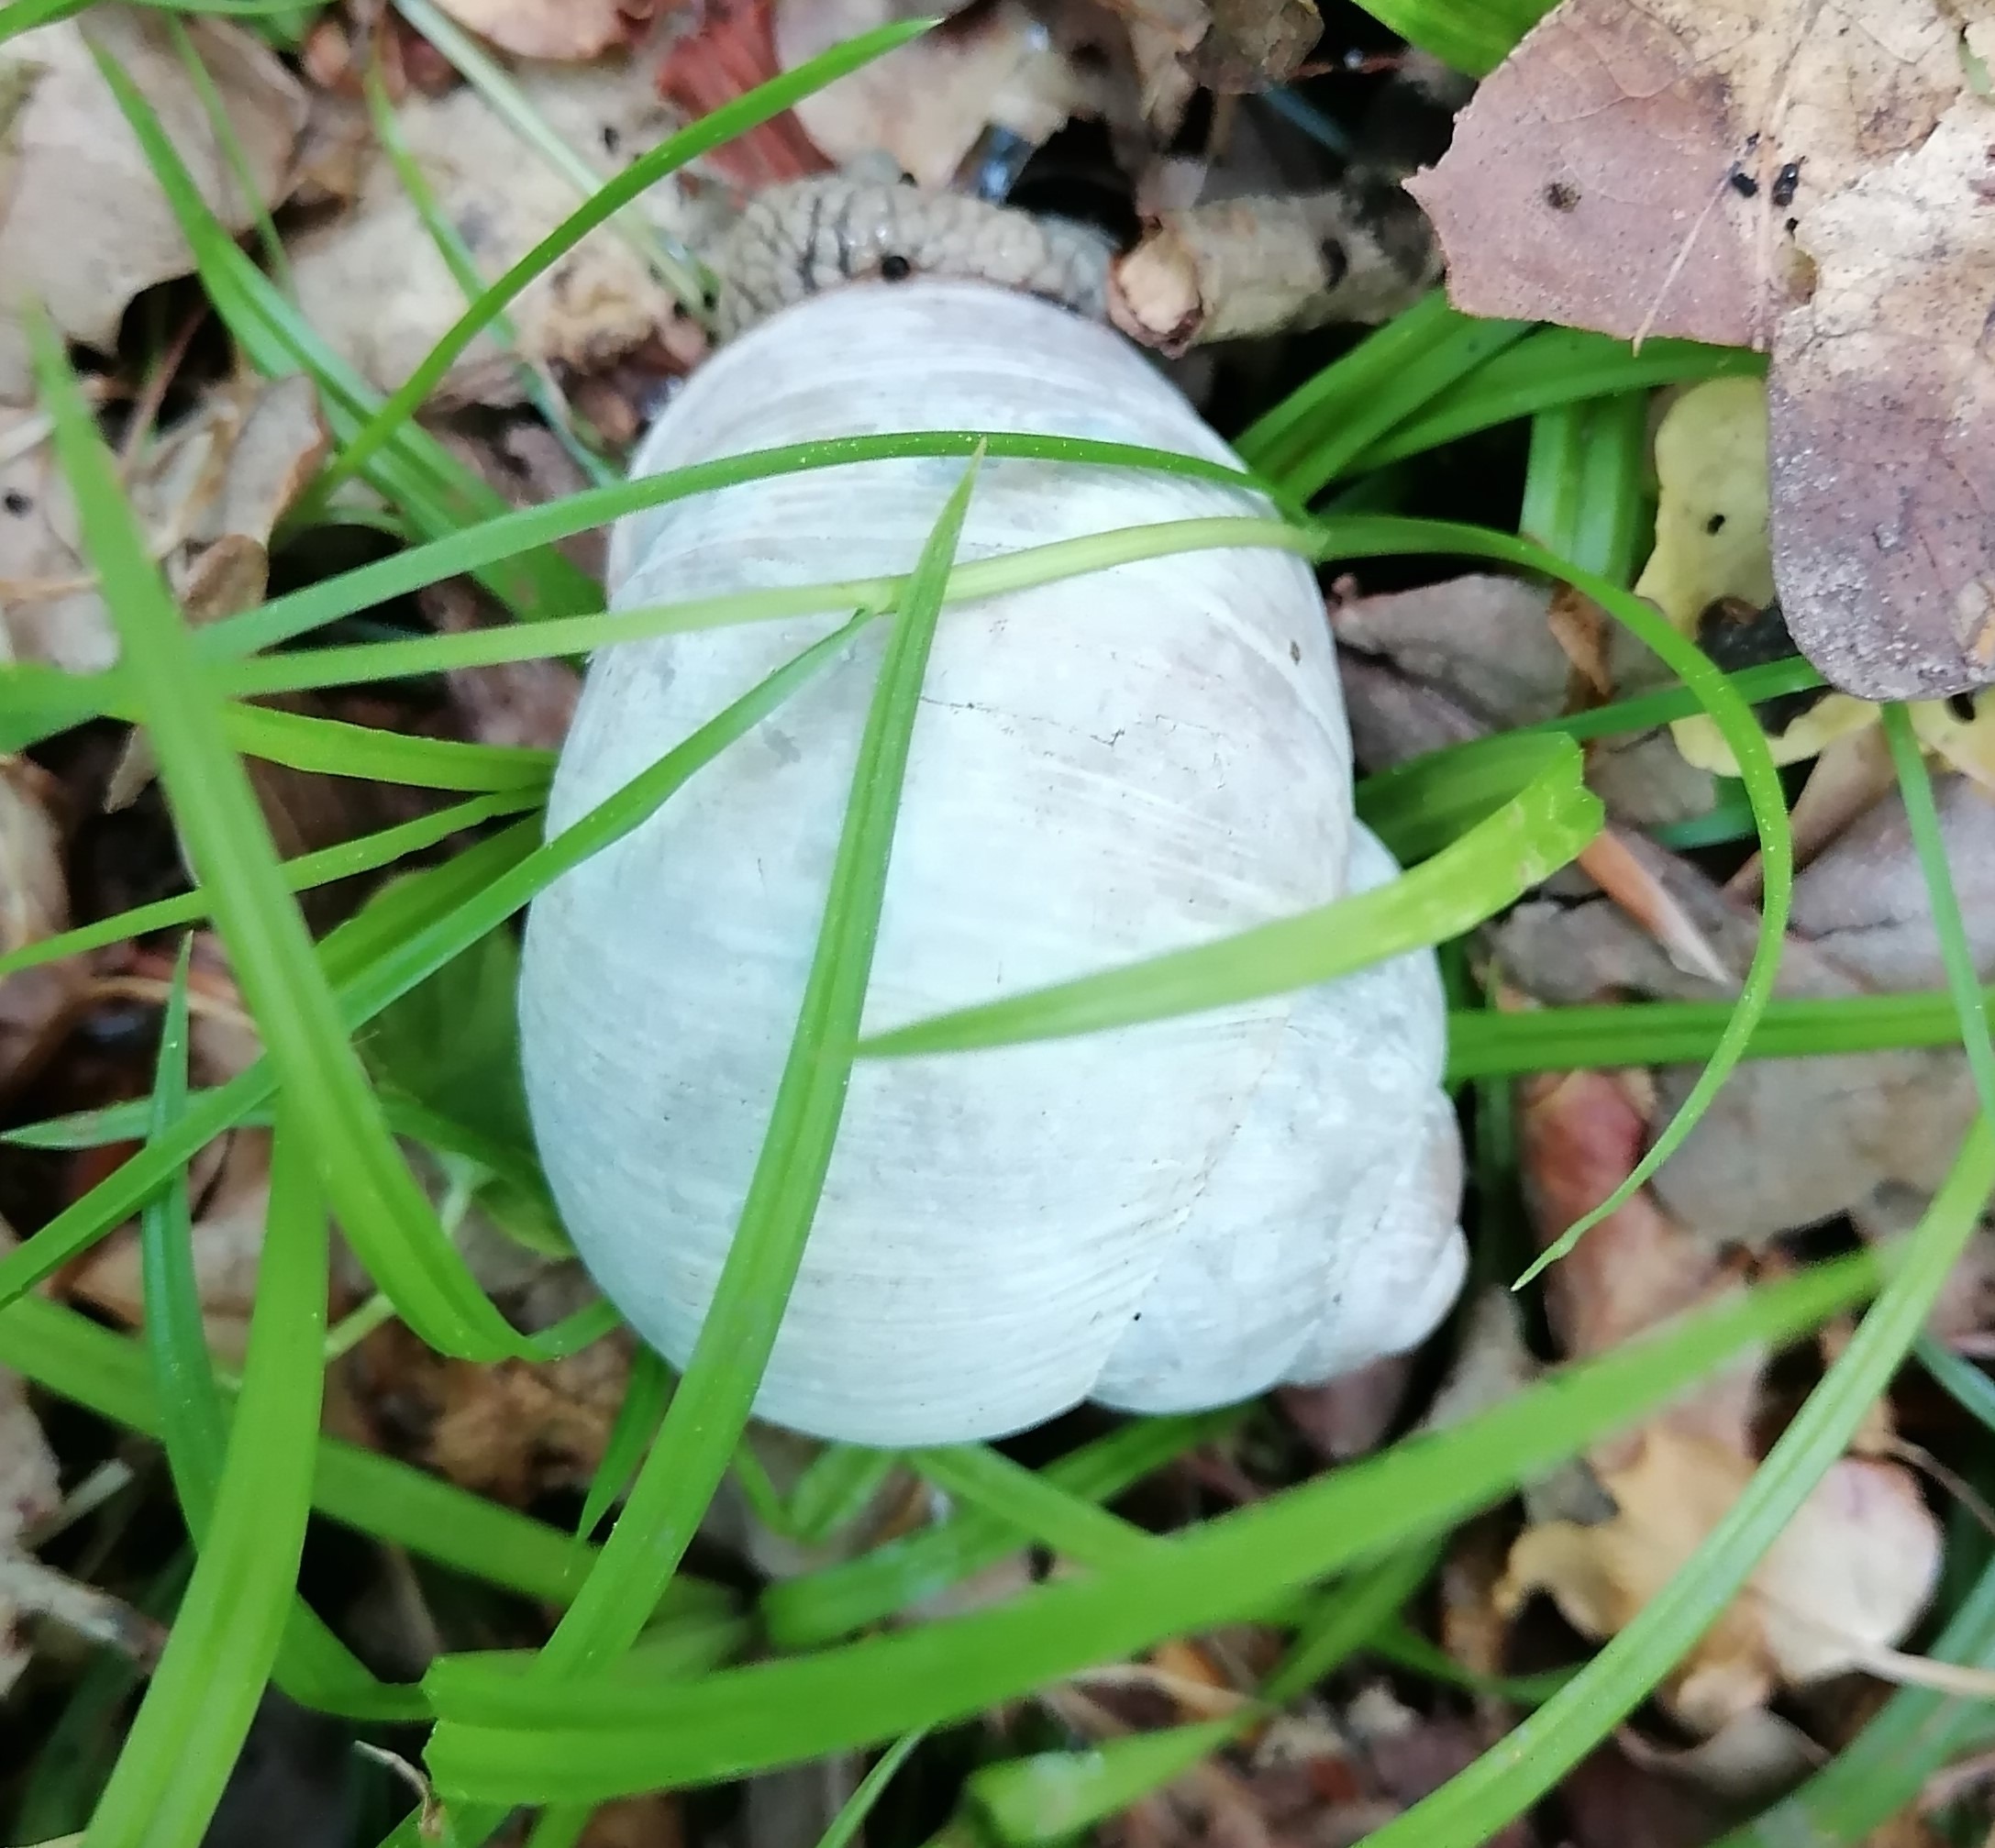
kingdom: Animalia
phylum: Mollusca
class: Gastropoda
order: Stylommatophora
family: Helicidae
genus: Helix
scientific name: Helix pomatia
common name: Vinbjergsnegl
